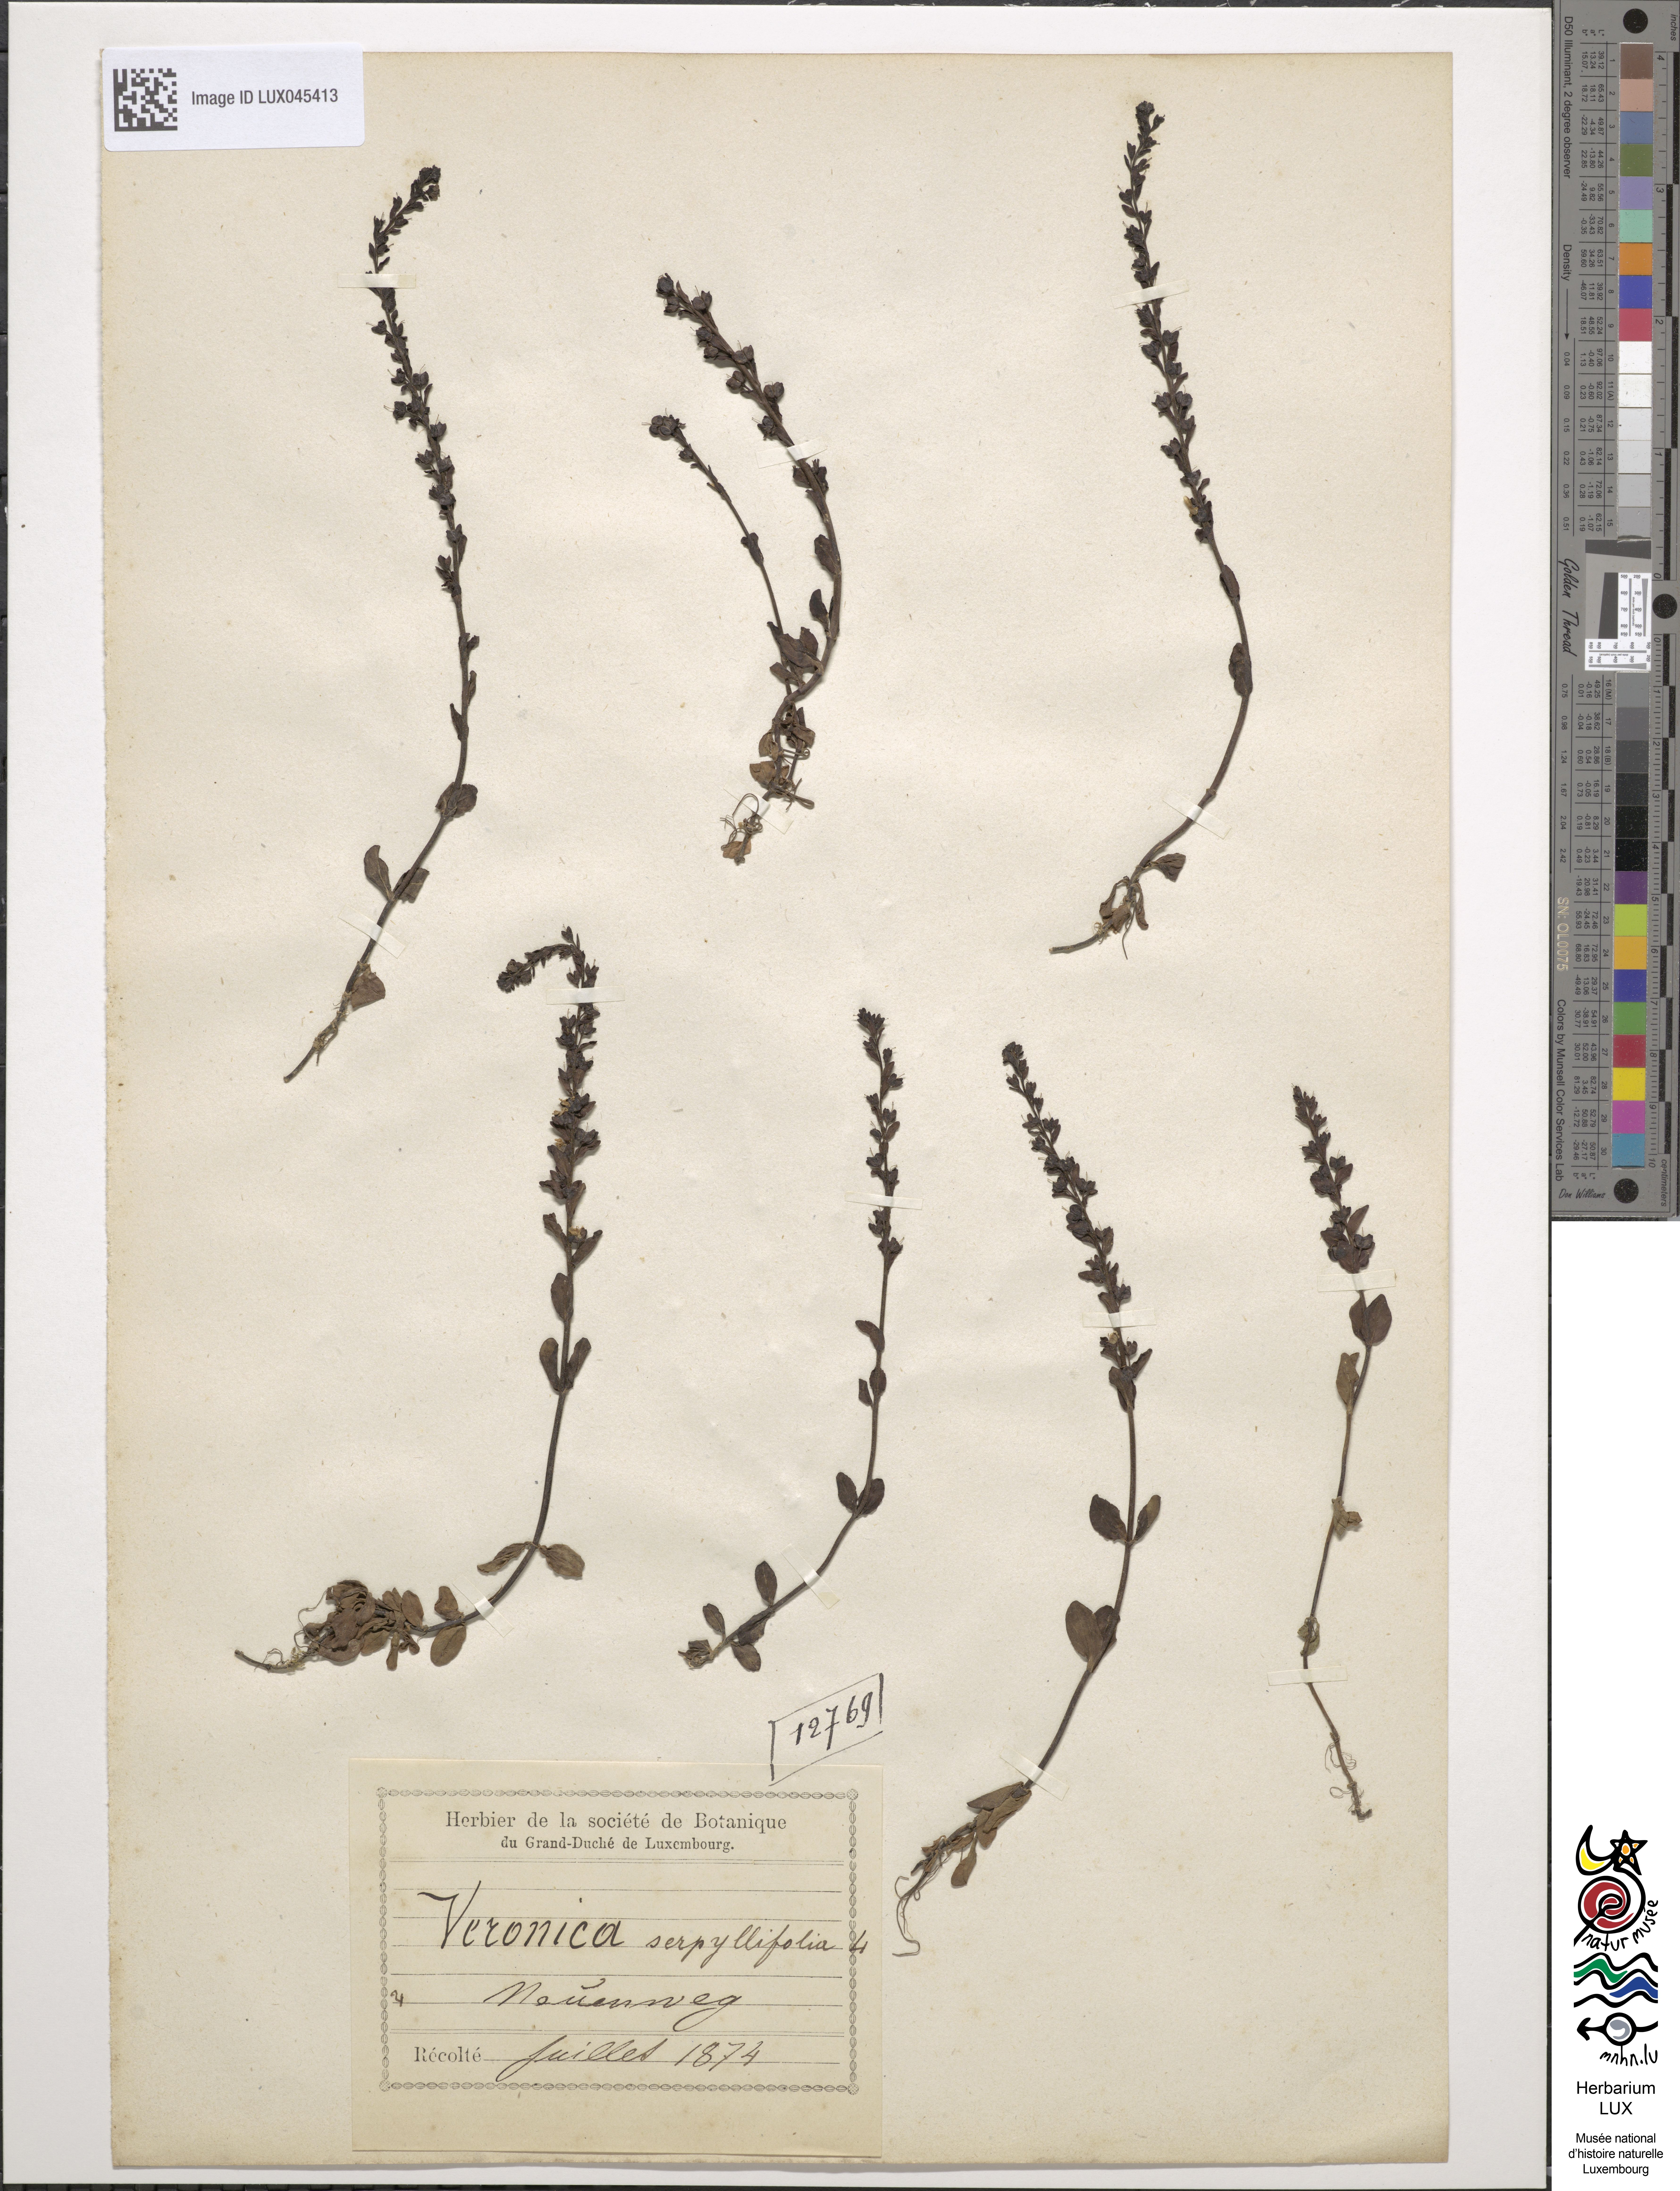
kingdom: Plantae
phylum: Tracheophyta
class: Magnoliopsida
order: Lamiales
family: Plantaginaceae
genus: Veronica
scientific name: Veronica serpyllifolia
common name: Thyme-leaved speedwell
